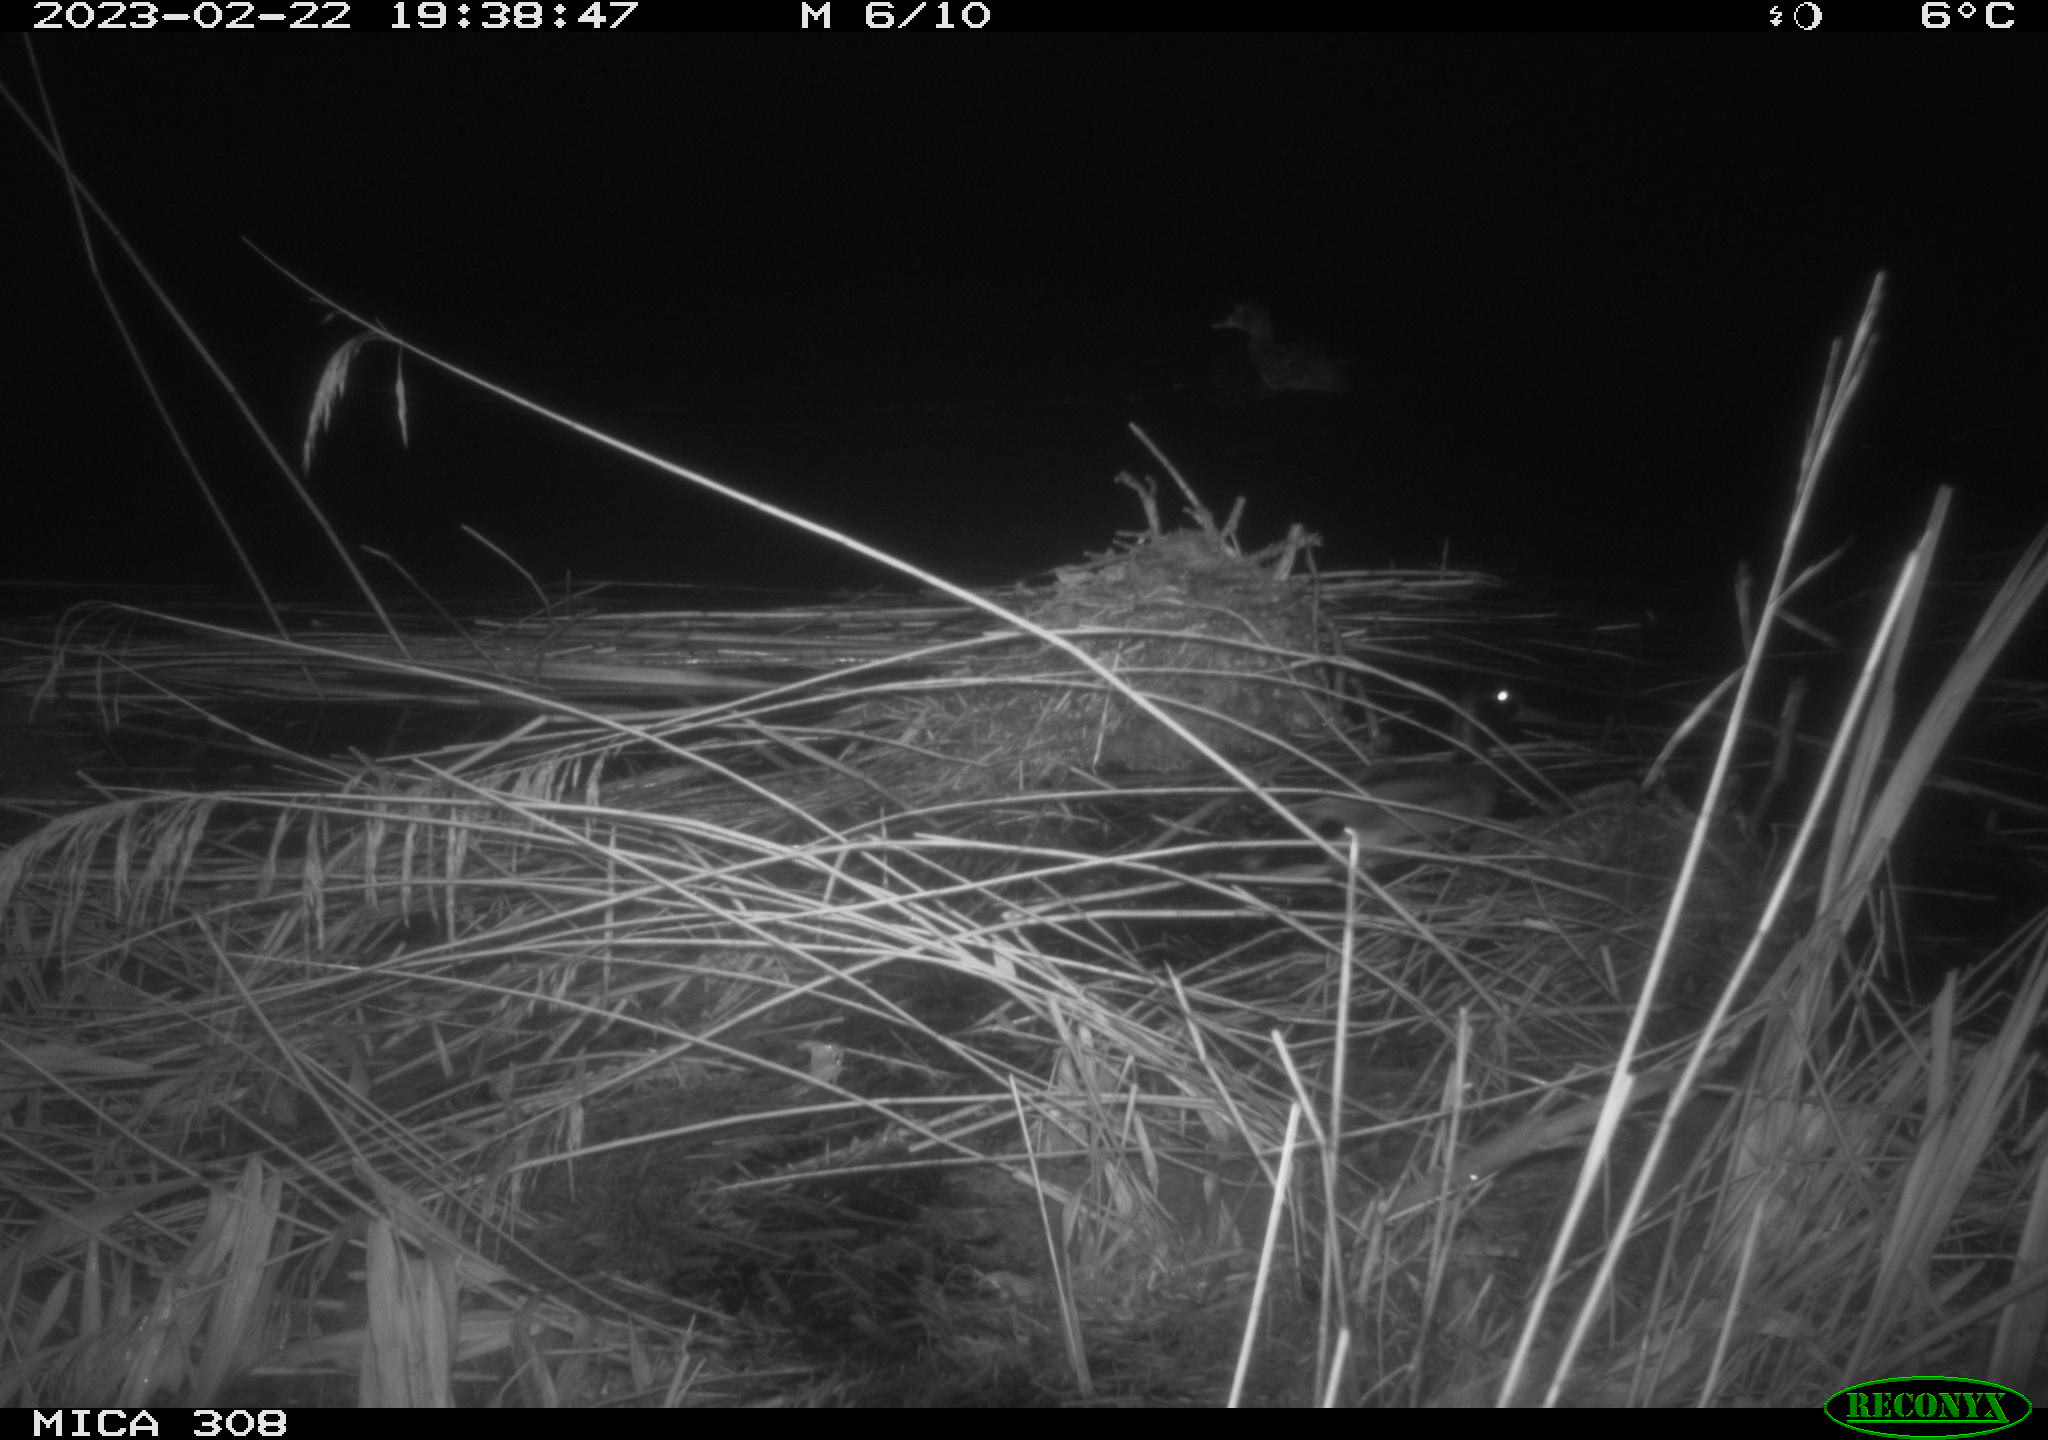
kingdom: Animalia
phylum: Chordata
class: Aves
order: Anseriformes
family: Anatidae
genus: Anas
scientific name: Anas
